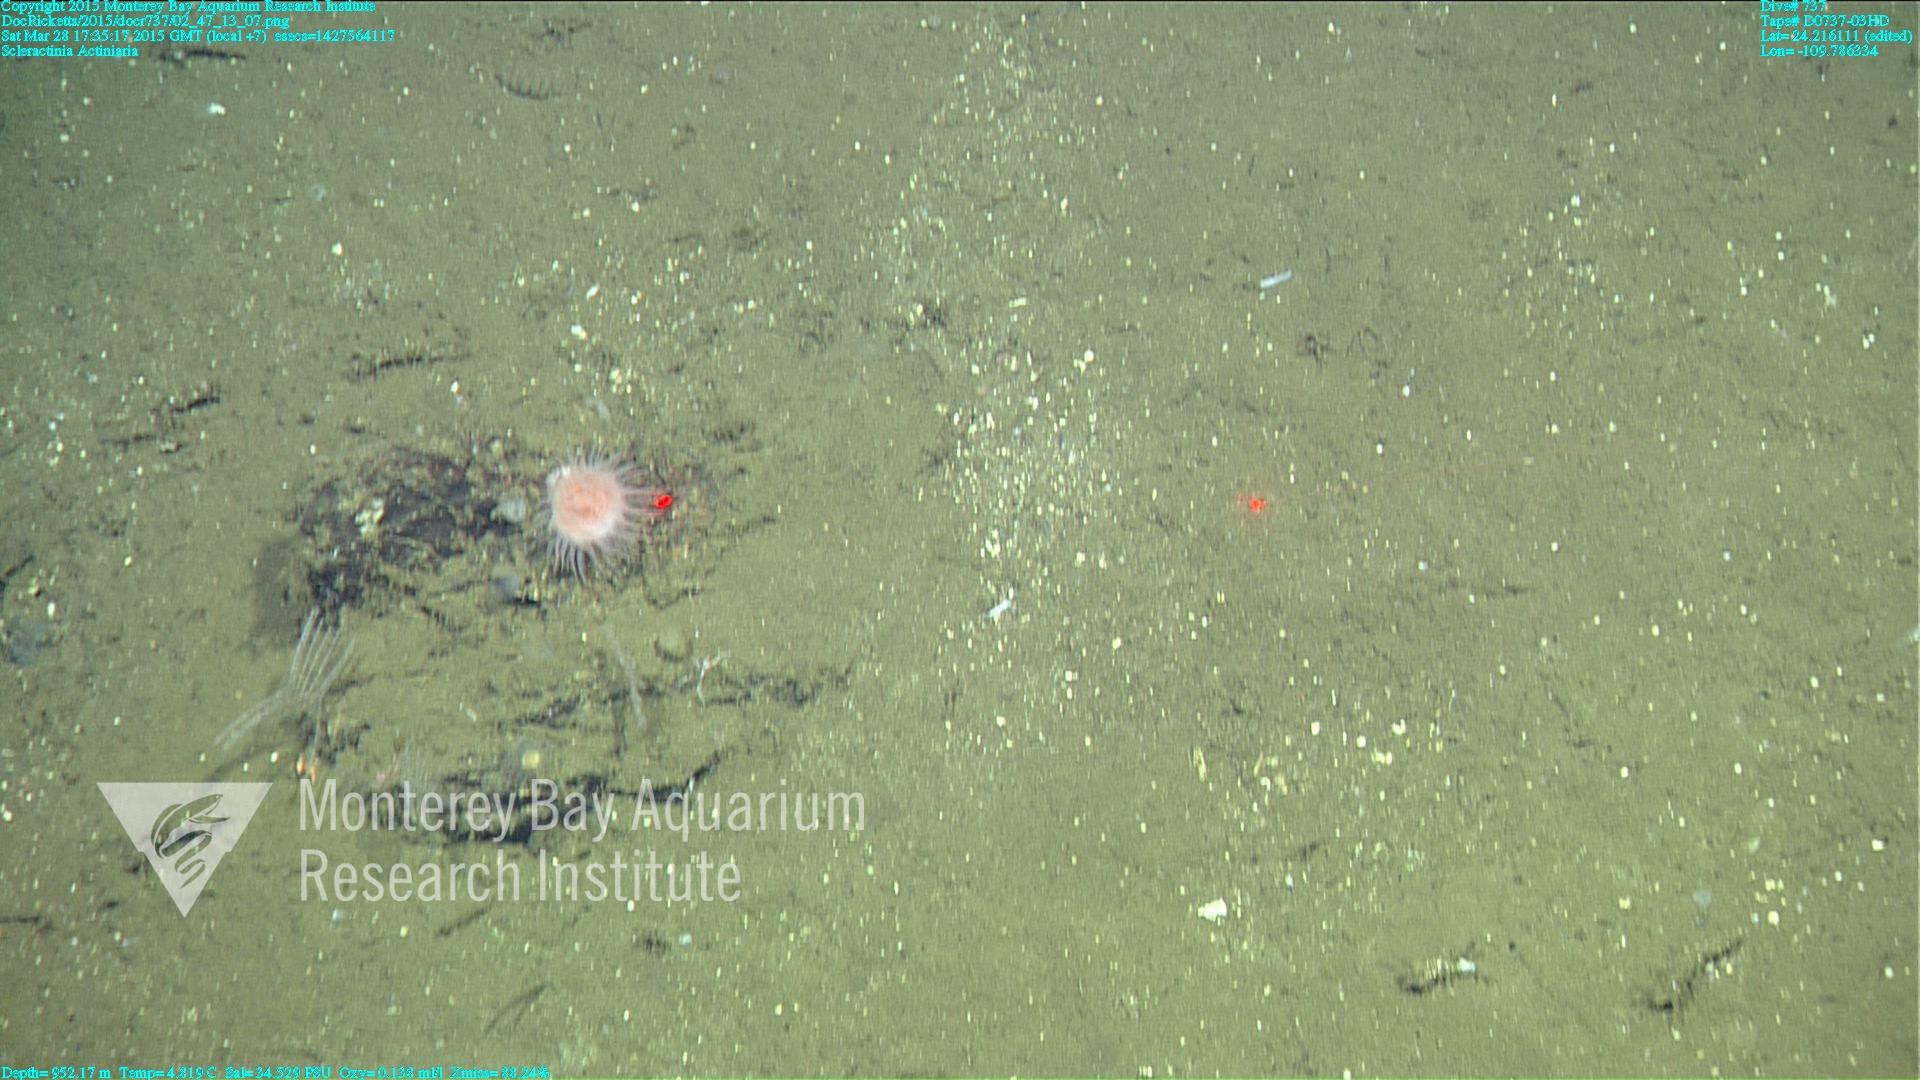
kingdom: Animalia
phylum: Cnidaria
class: Anthozoa
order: Scleractinia
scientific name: Scleractinia
